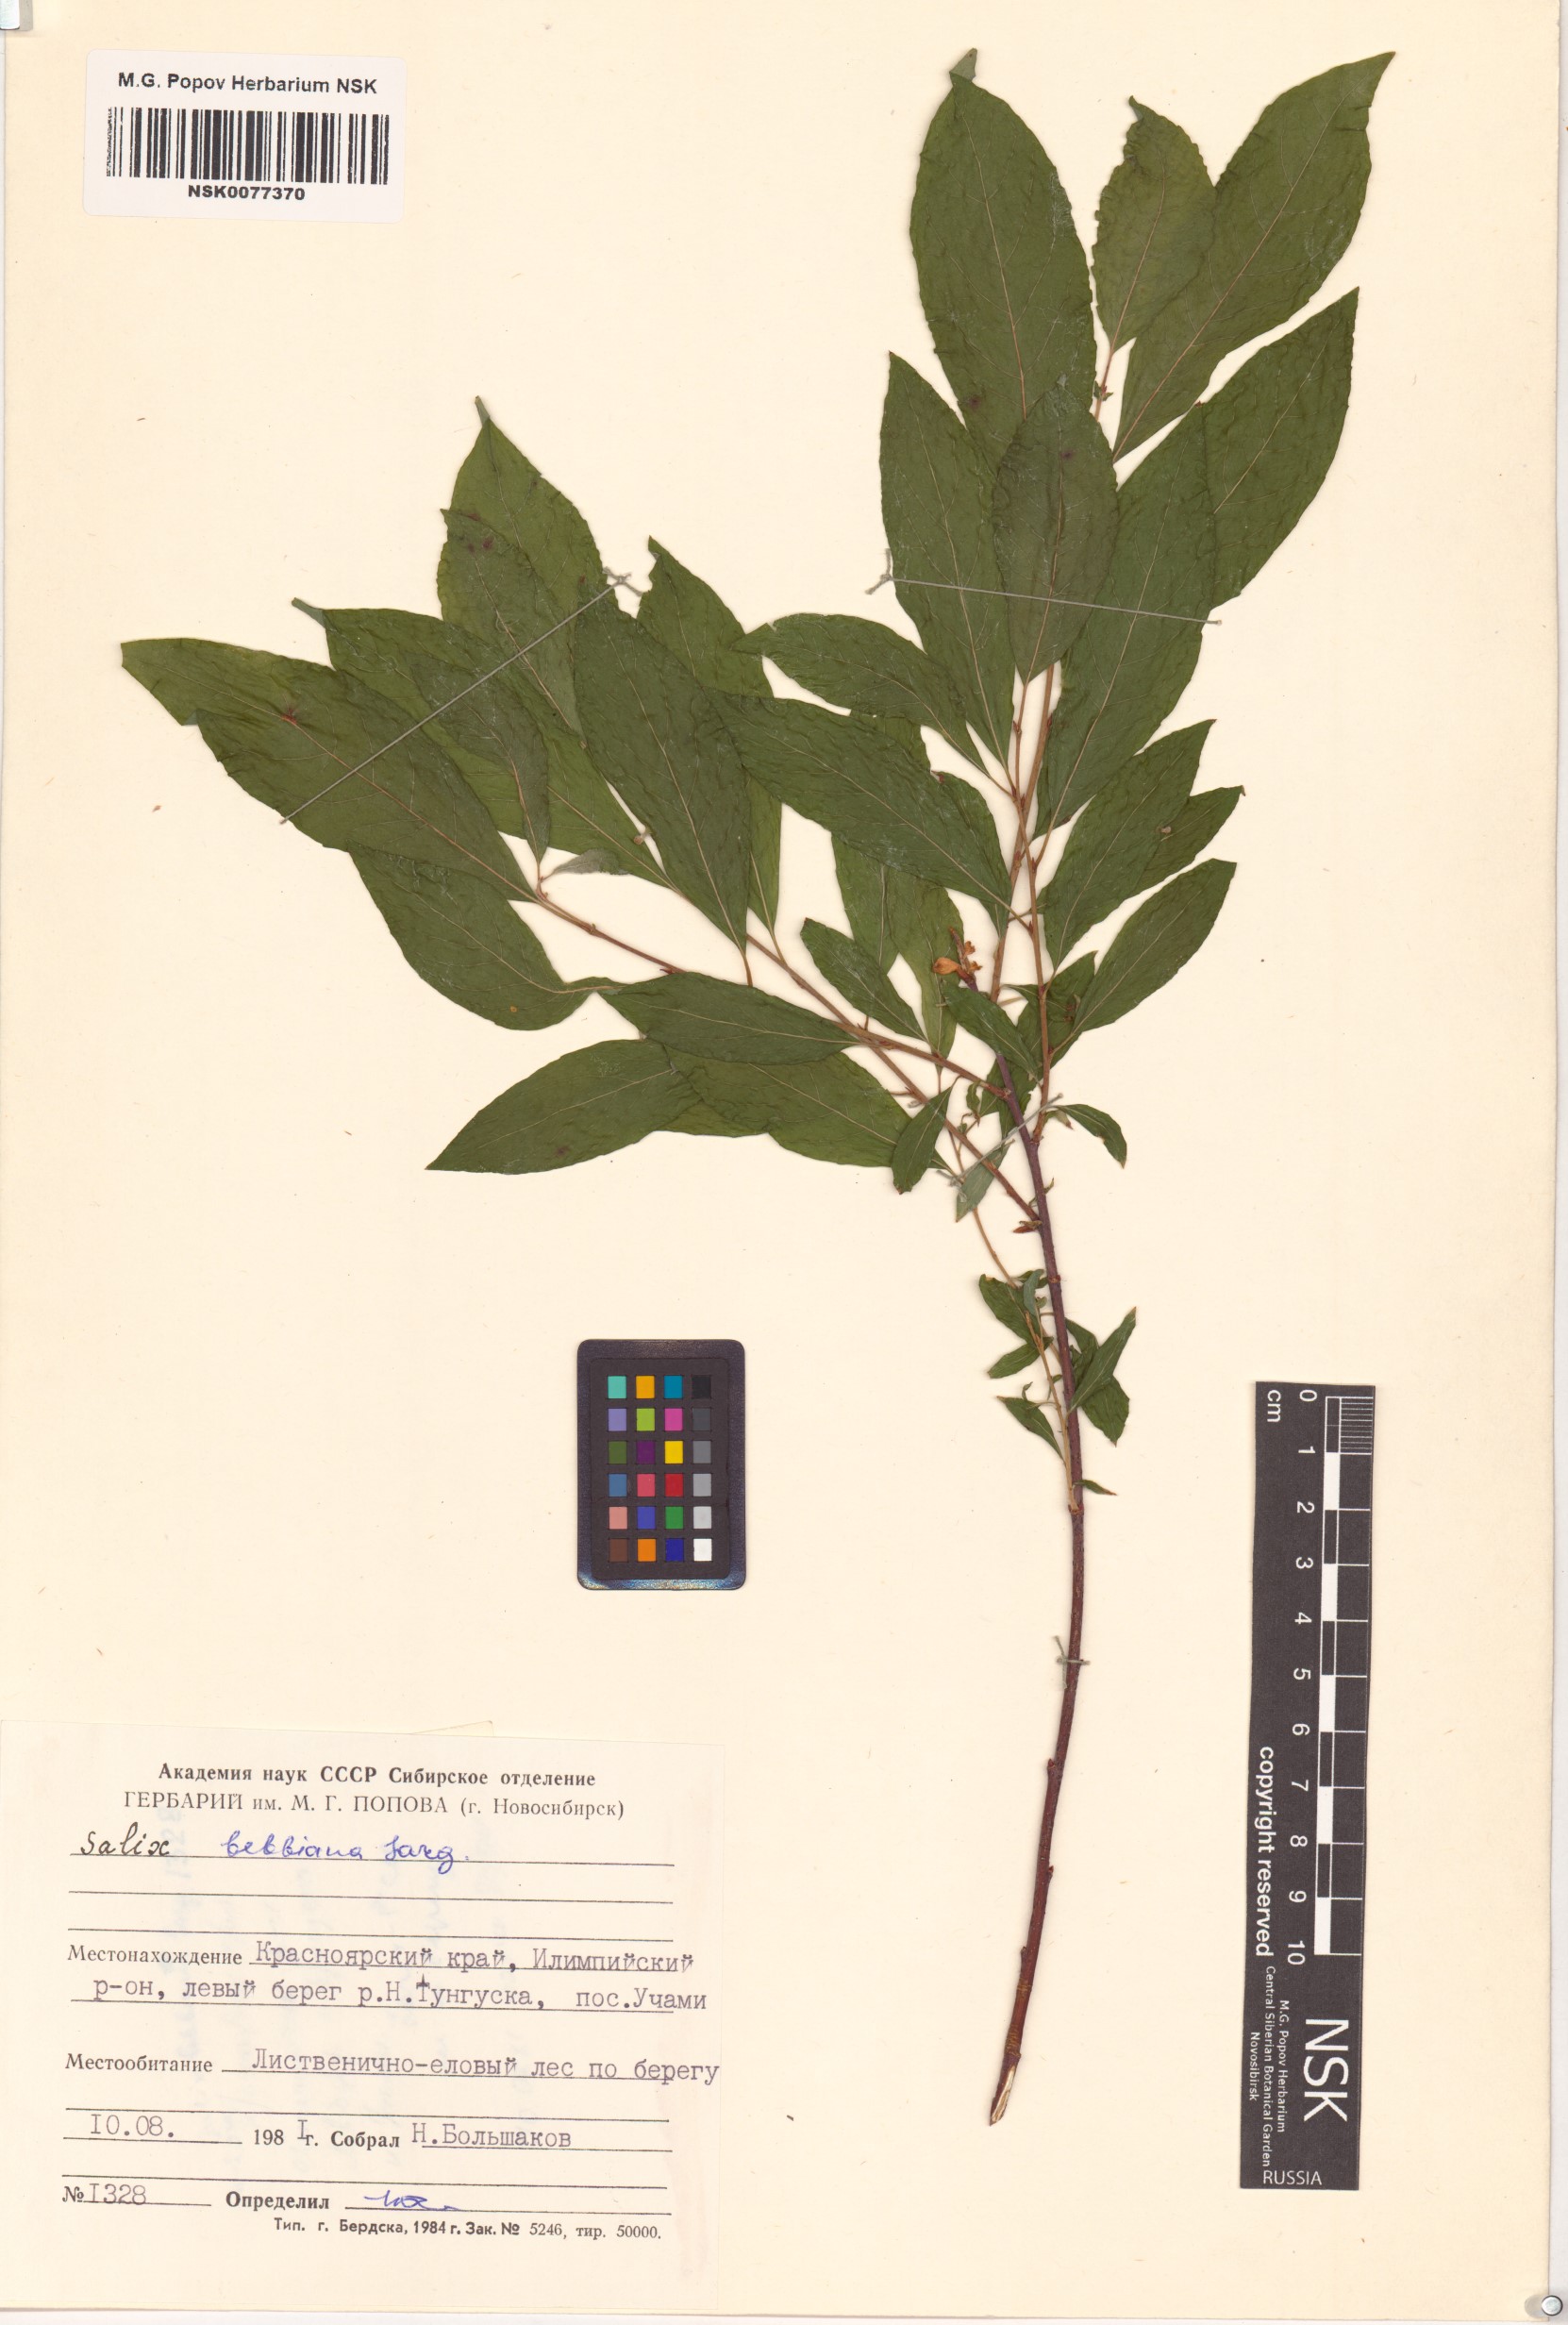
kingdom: Plantae
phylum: Tracheophyta
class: Magnoliopsida
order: Malpighiales
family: Salicaceae
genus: Salix
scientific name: Salix bebbiana
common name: Bebb's willow
